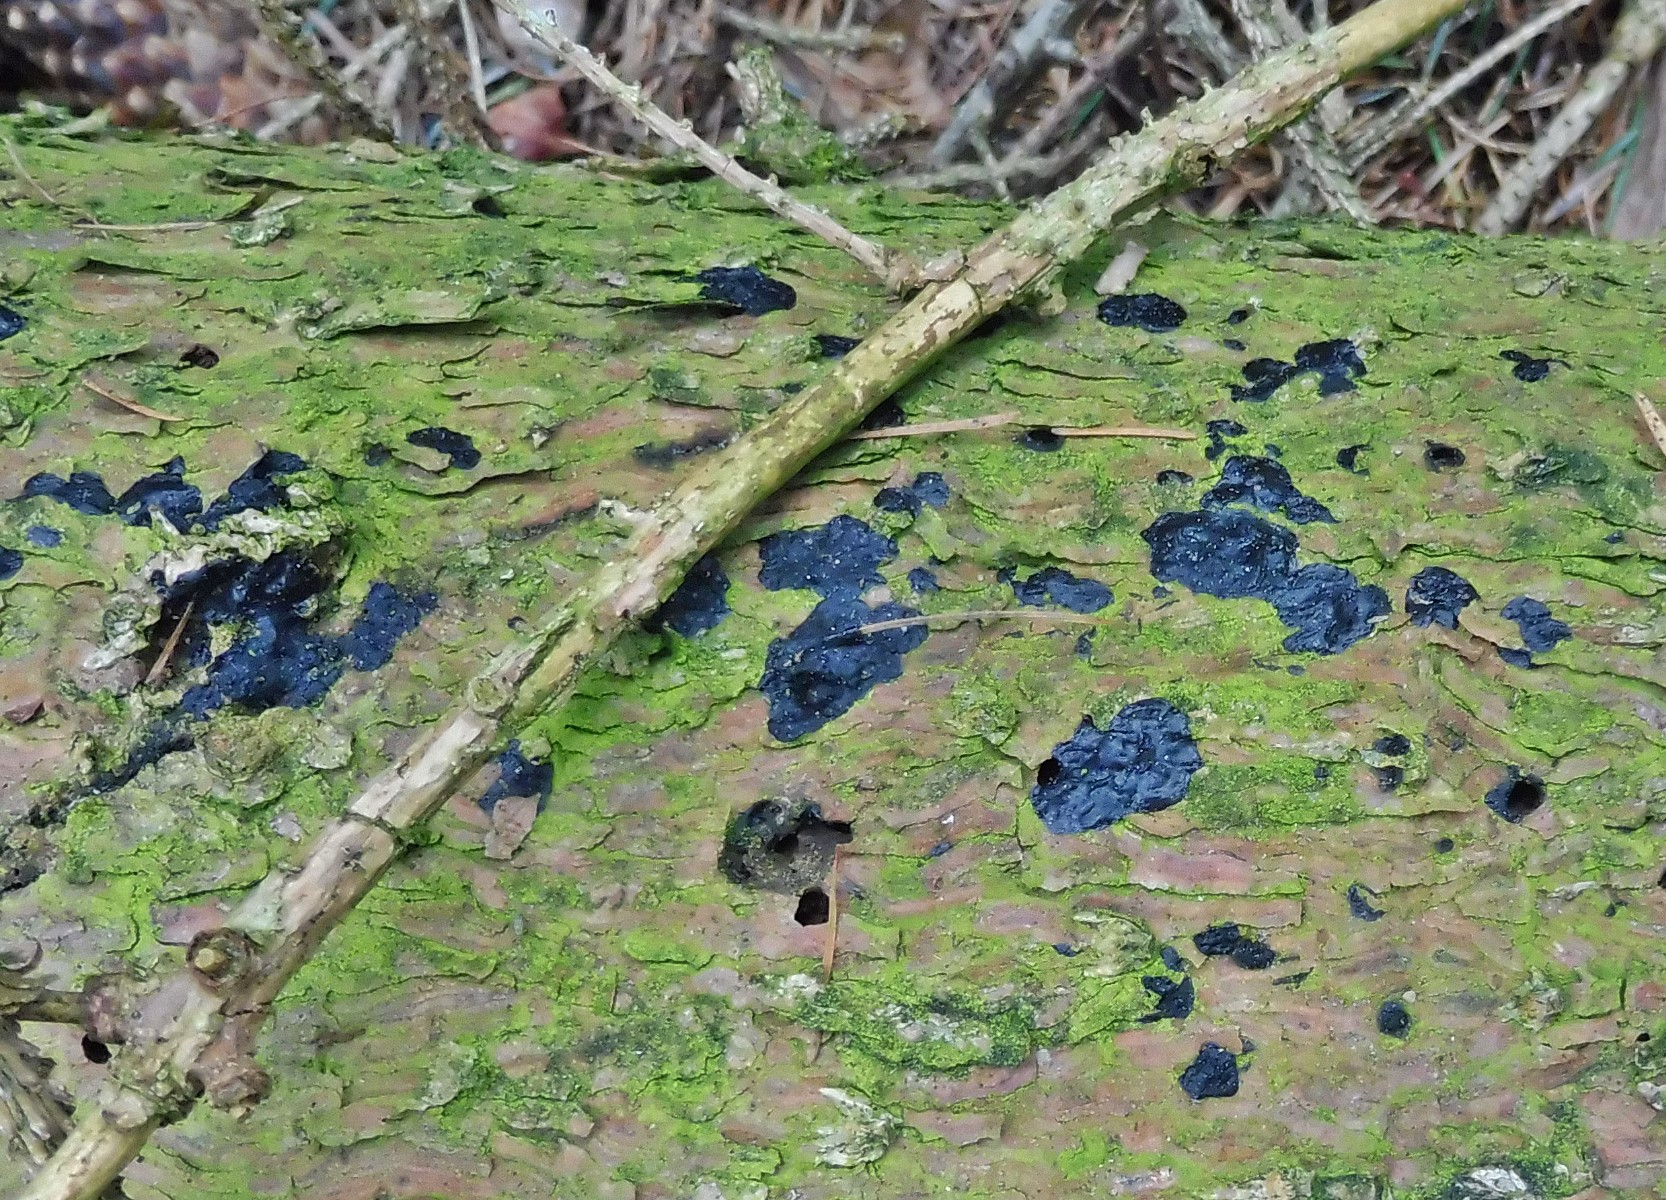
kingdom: Fungi
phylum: Basidiomycota
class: Agaricomycetes
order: Auriculariales
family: Auriculariaceae
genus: Exidia
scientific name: Exidia pithya
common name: gran-bævretop
